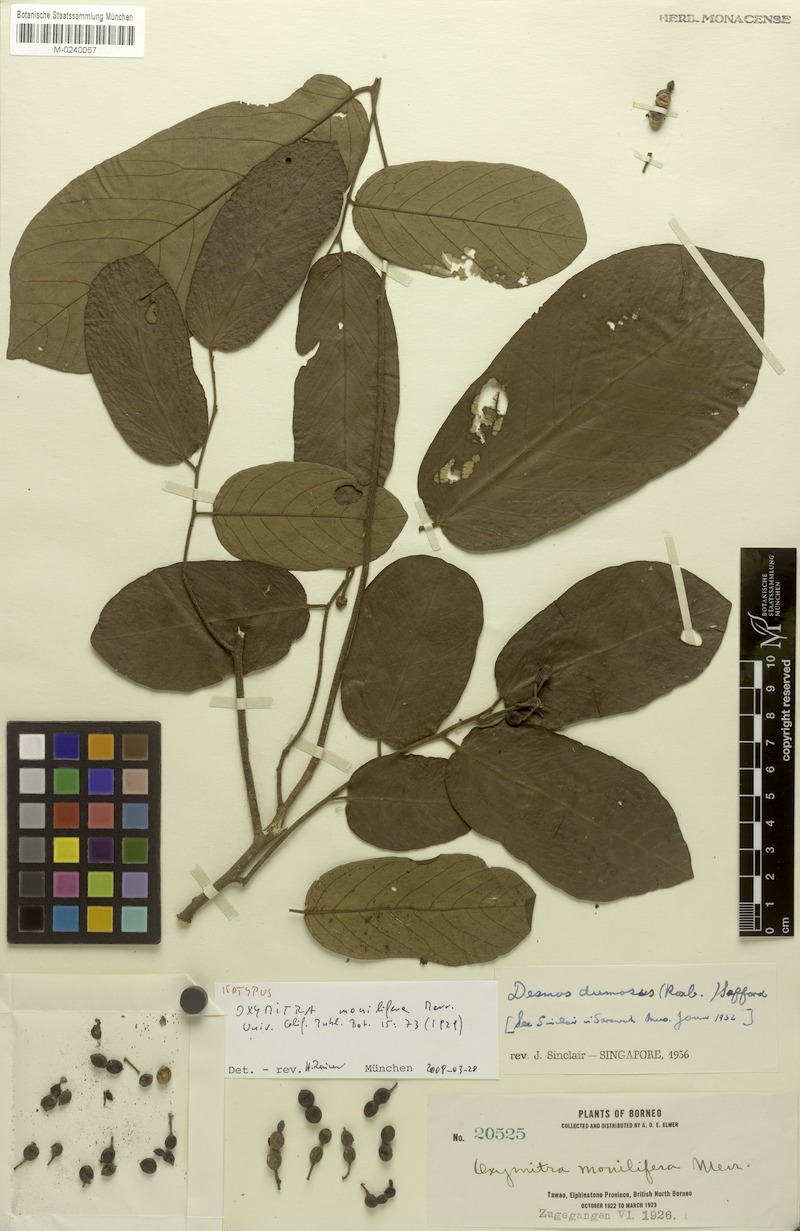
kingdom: Plantae
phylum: Tracheophyta
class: Magnoliopsida
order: Magnoliales
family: Annonaceae
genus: Desmos
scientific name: Desmos dumosus
